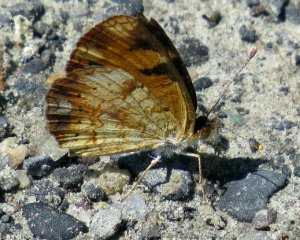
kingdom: Animalia
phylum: Arthropoda
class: Insecta
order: Lepidoptera
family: Nymphalidae
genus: Phyciodes
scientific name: Phyciodes tharos
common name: Northern Crescent
